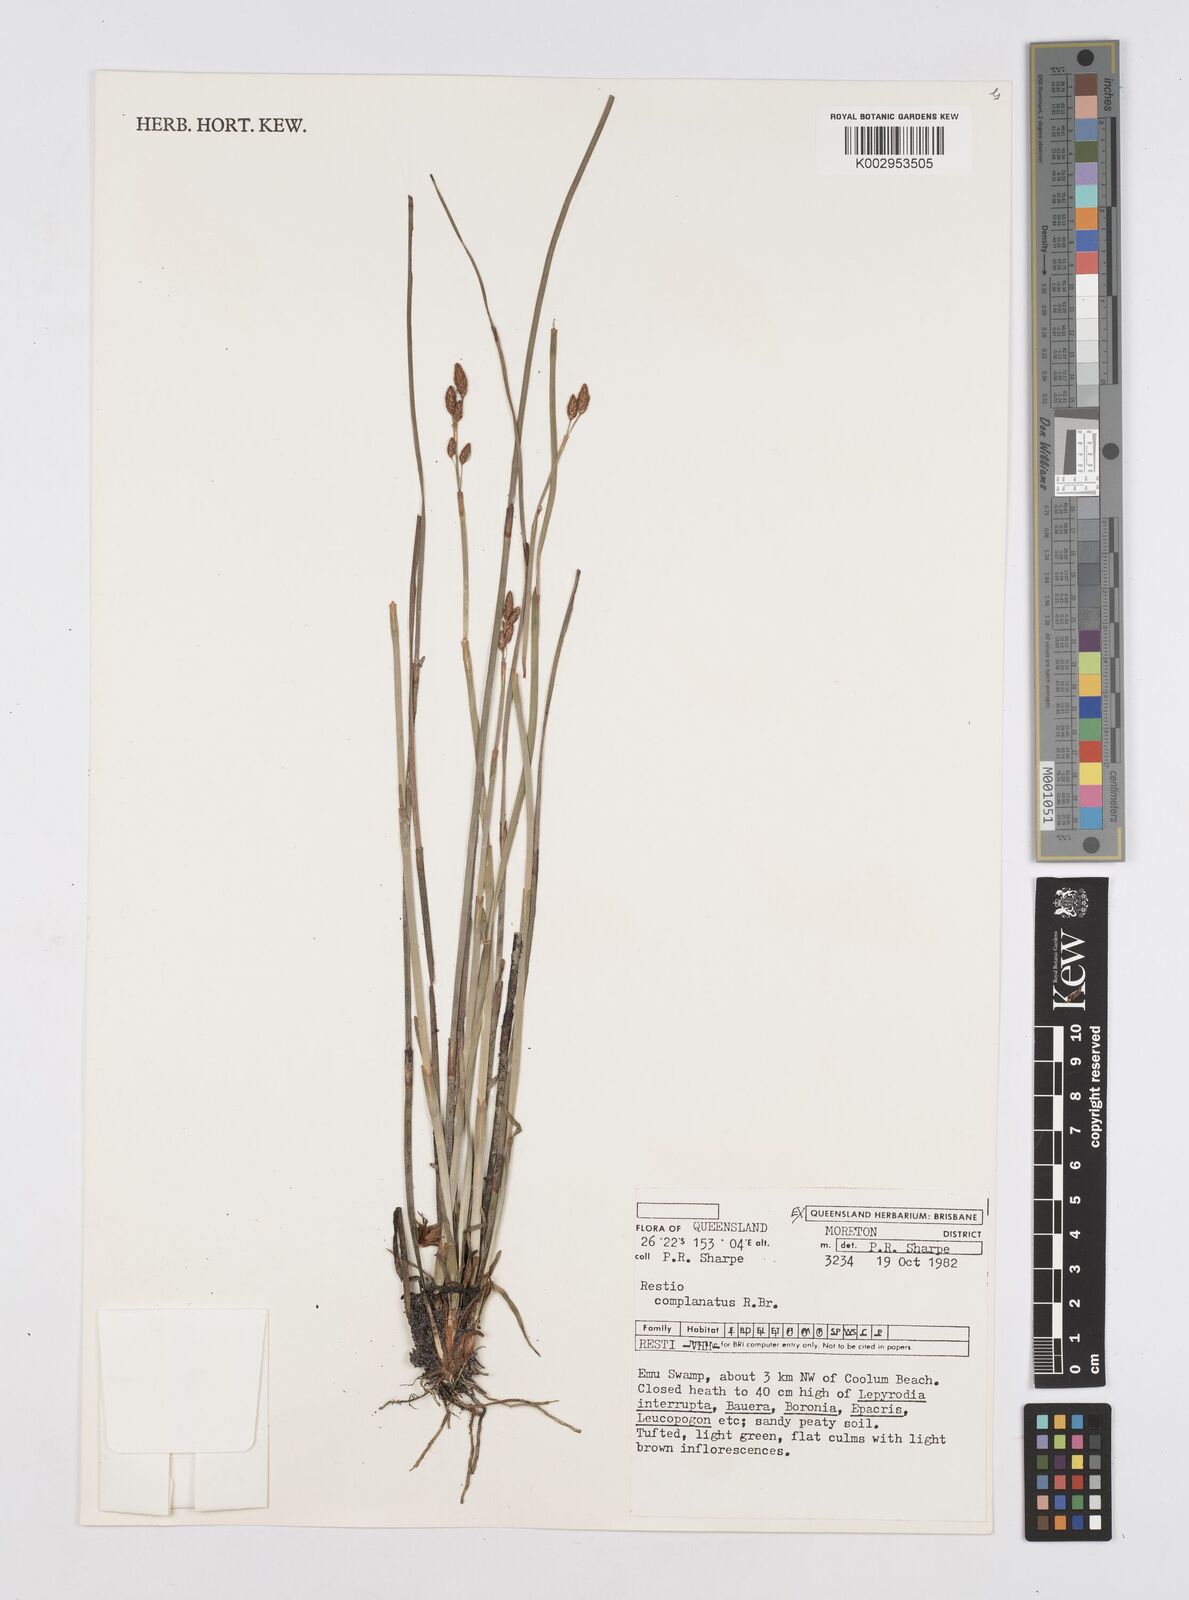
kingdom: Plantae
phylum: Tracheophyta
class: Liliopsida
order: Poales
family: Restionaceae
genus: Eurychorda
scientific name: Eurychorda complanata
